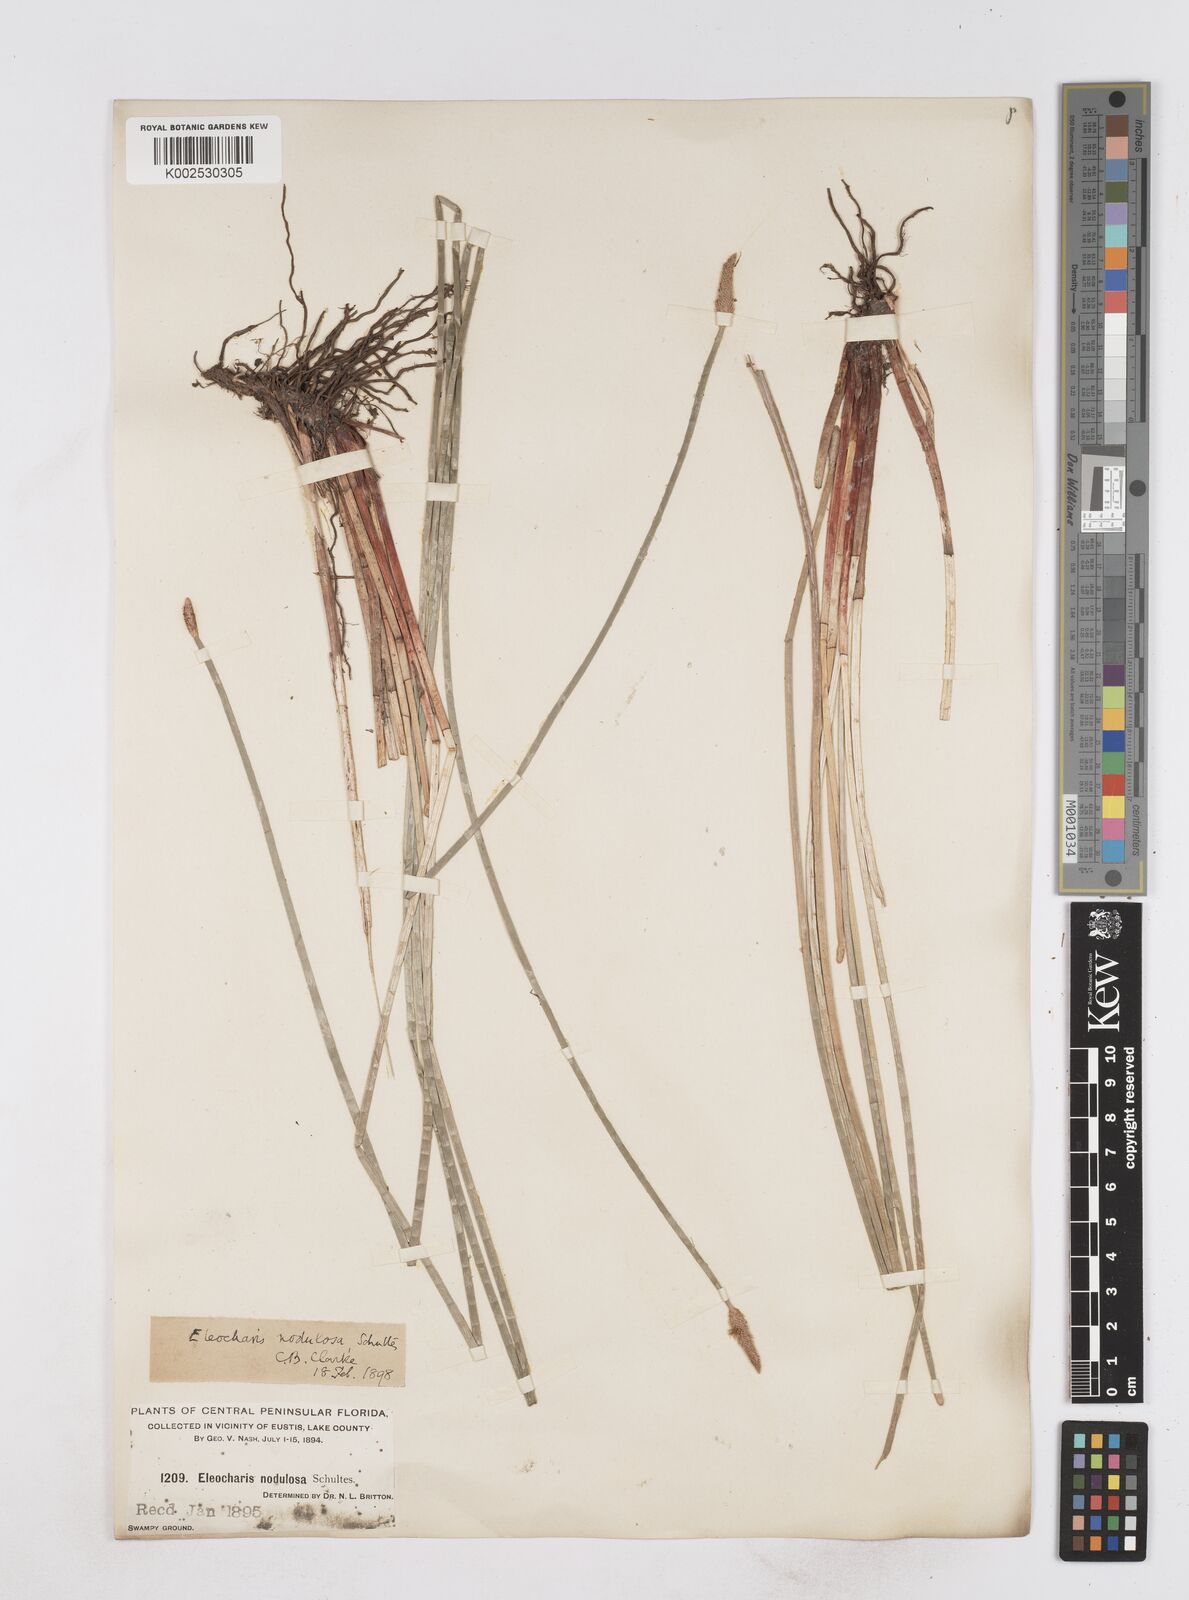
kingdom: Plantae
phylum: Tracheophyta
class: Liliopsida
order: Poales
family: Cyperaceae
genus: Eleocharis
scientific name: Eleocharis montana
